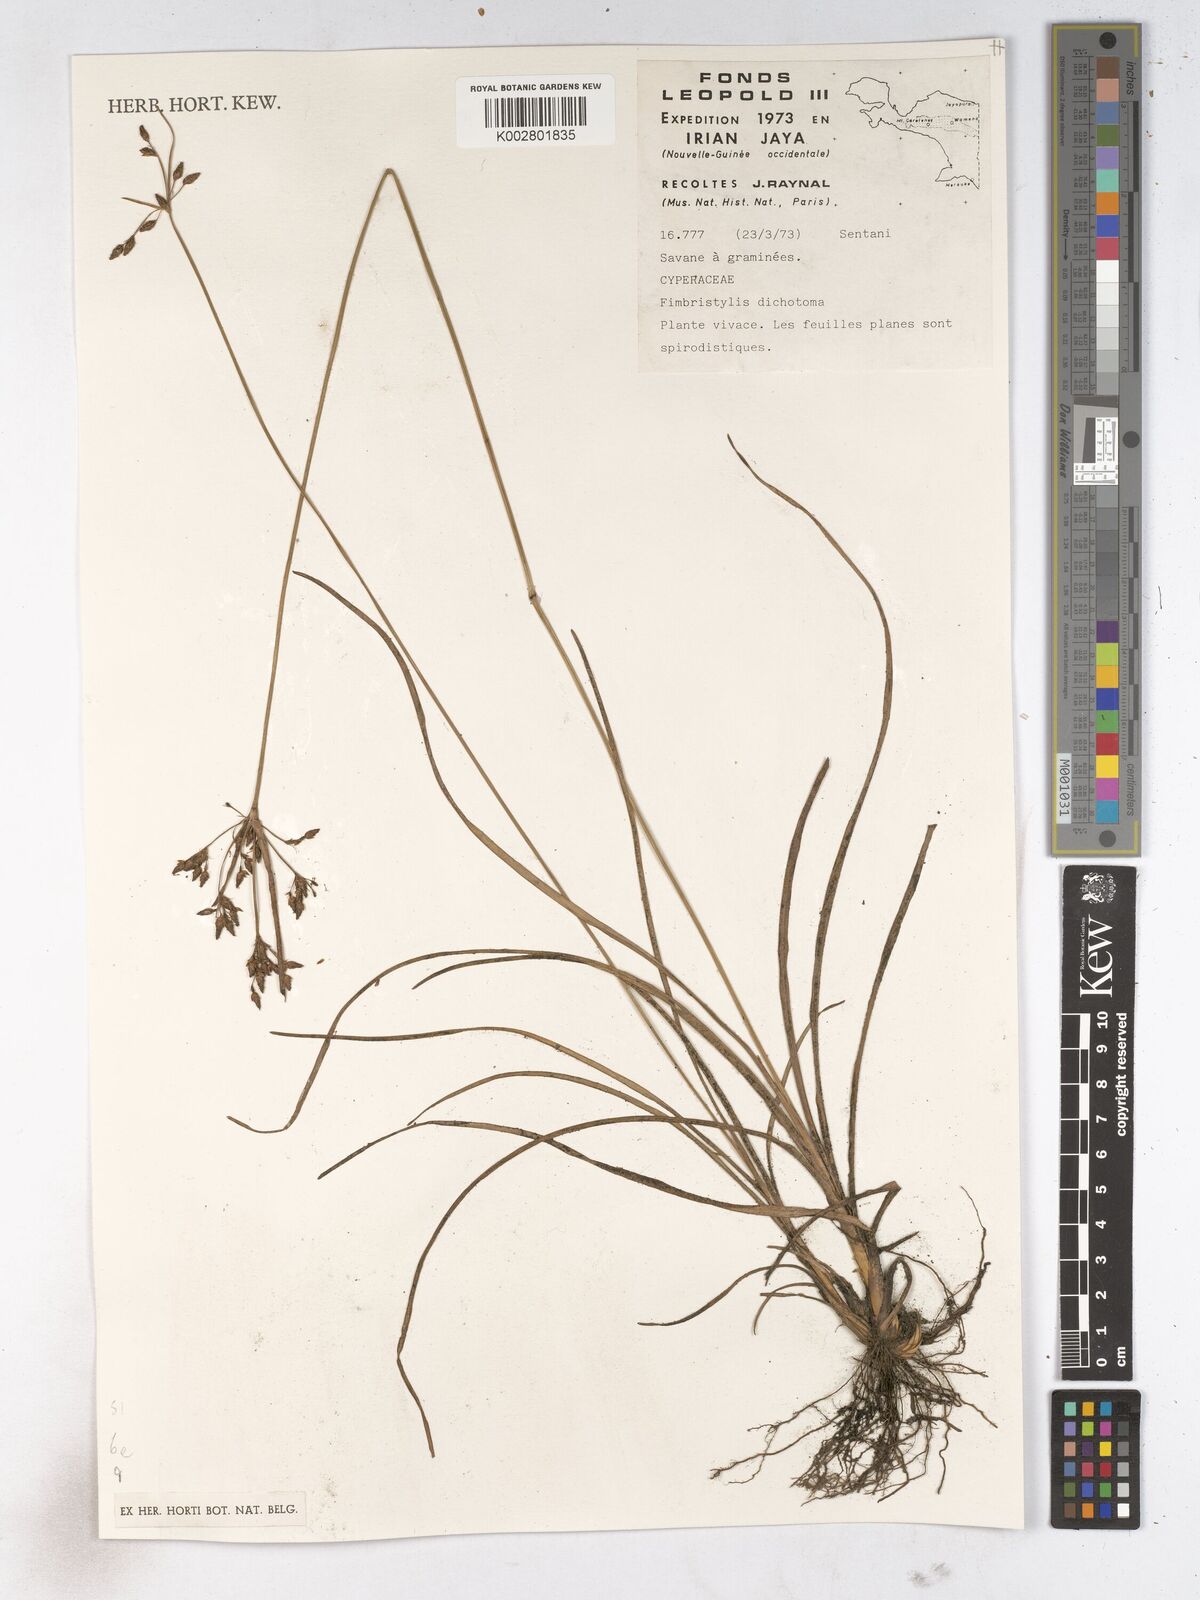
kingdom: Plantae
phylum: Tracheophyta
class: Liliopsida
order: Poales
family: Cyperaceae
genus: Fimbristylis
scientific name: Fimbristylis dichotoma
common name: Forked fimbry
